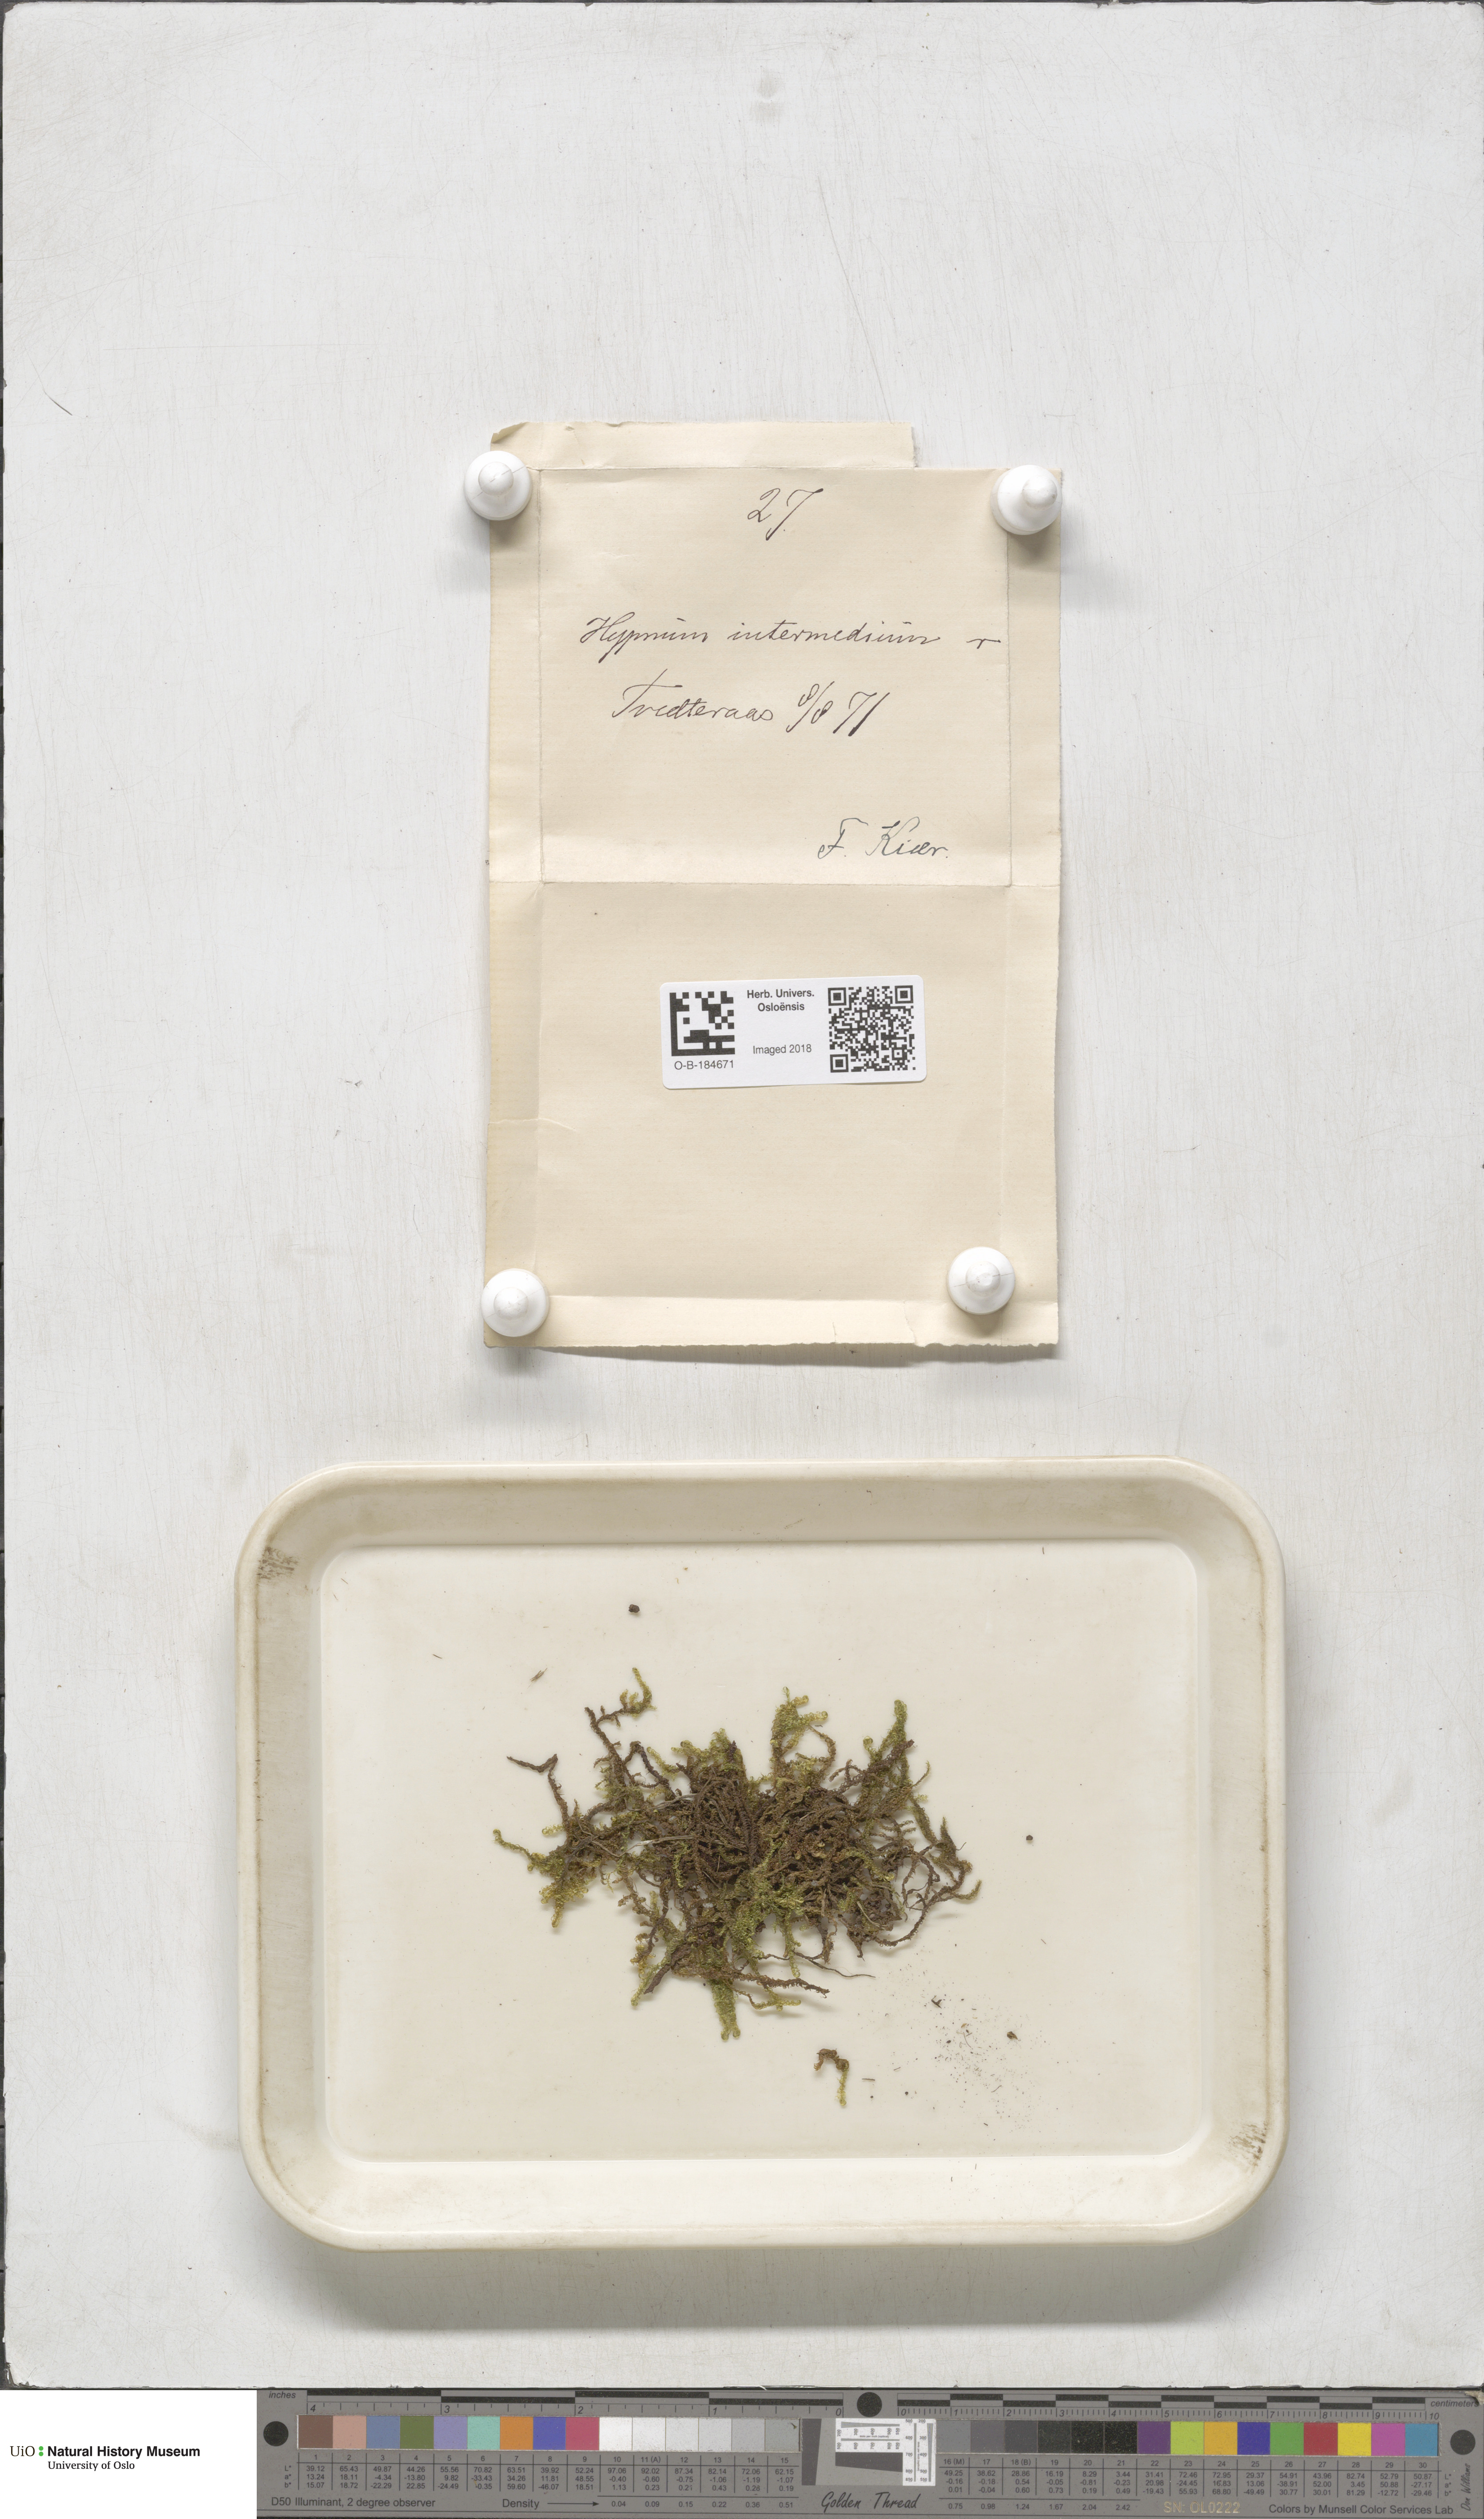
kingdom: Plantae
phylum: Bryophyta
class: Bryopsida
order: Hypnales
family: Scorpidiaceae
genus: Scorpidium
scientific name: Scorpidium cossonii
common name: Cosson's hook moss
